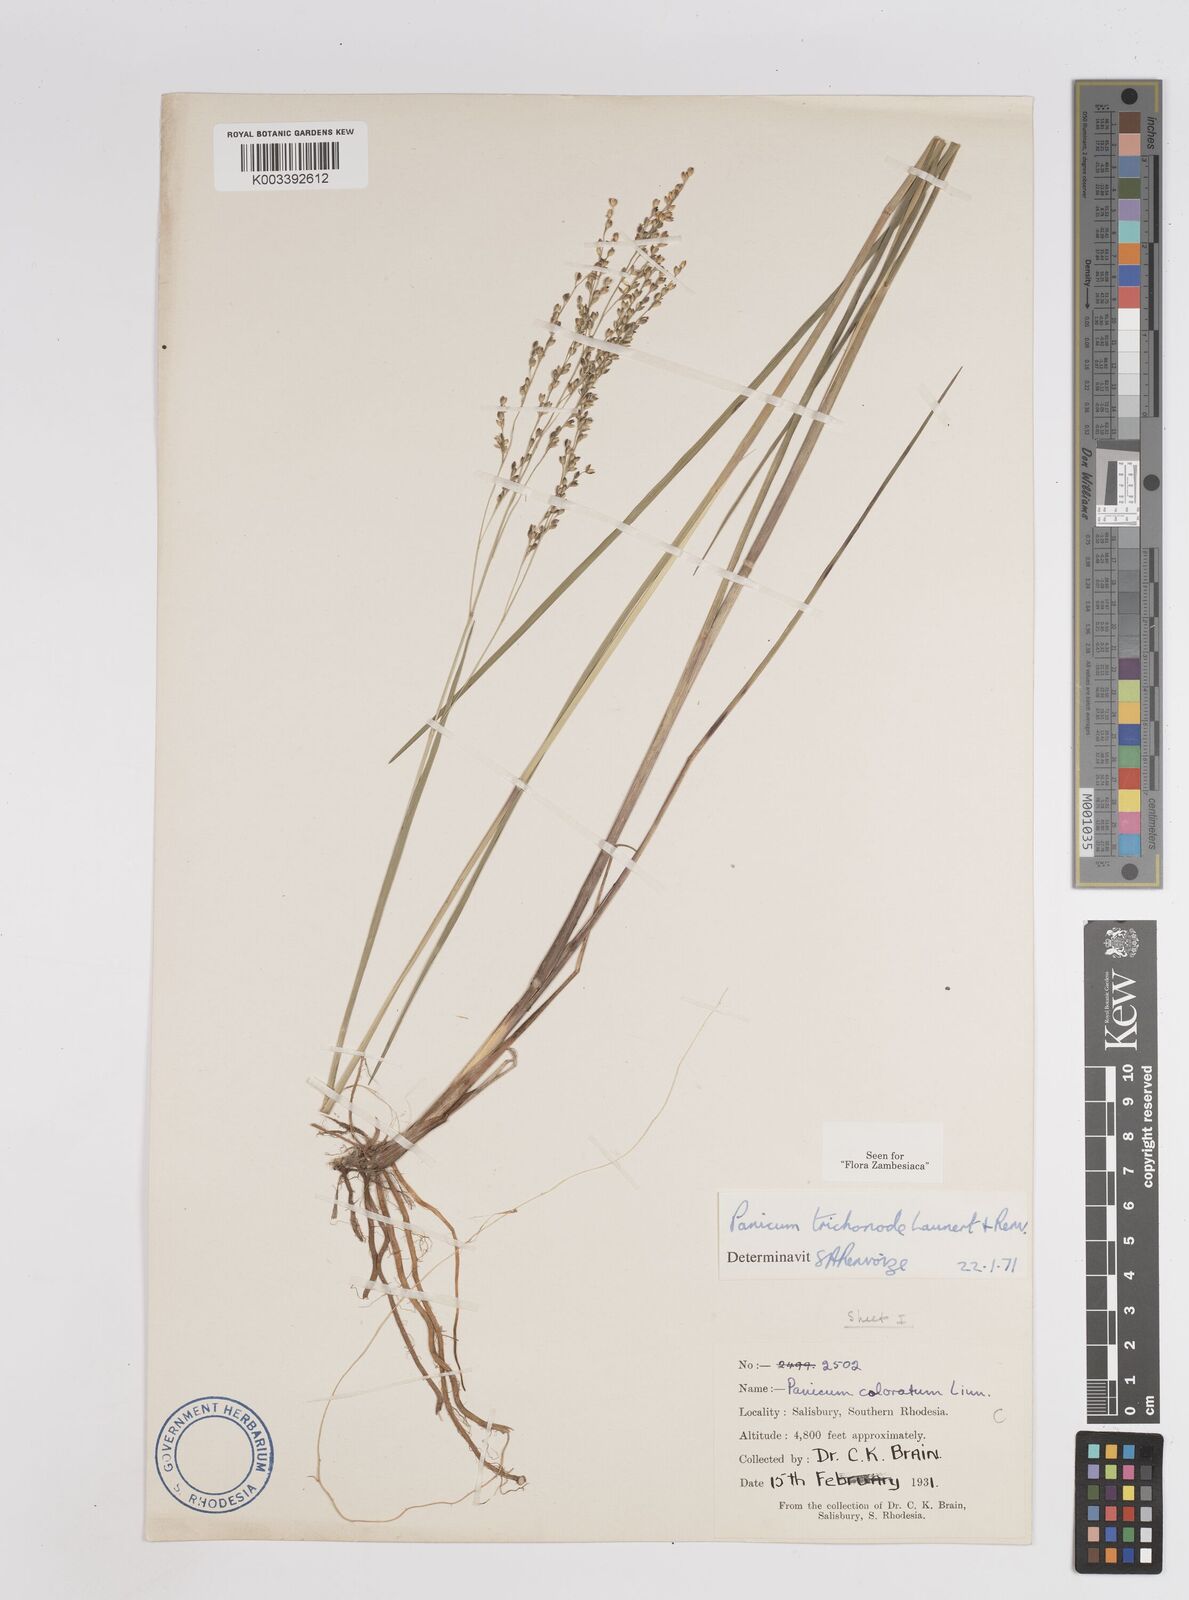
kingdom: Plantae
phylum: Tracheophyta
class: Liliopsida
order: Poales
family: Poaceae
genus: Panicum
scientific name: Panicum trichonode
